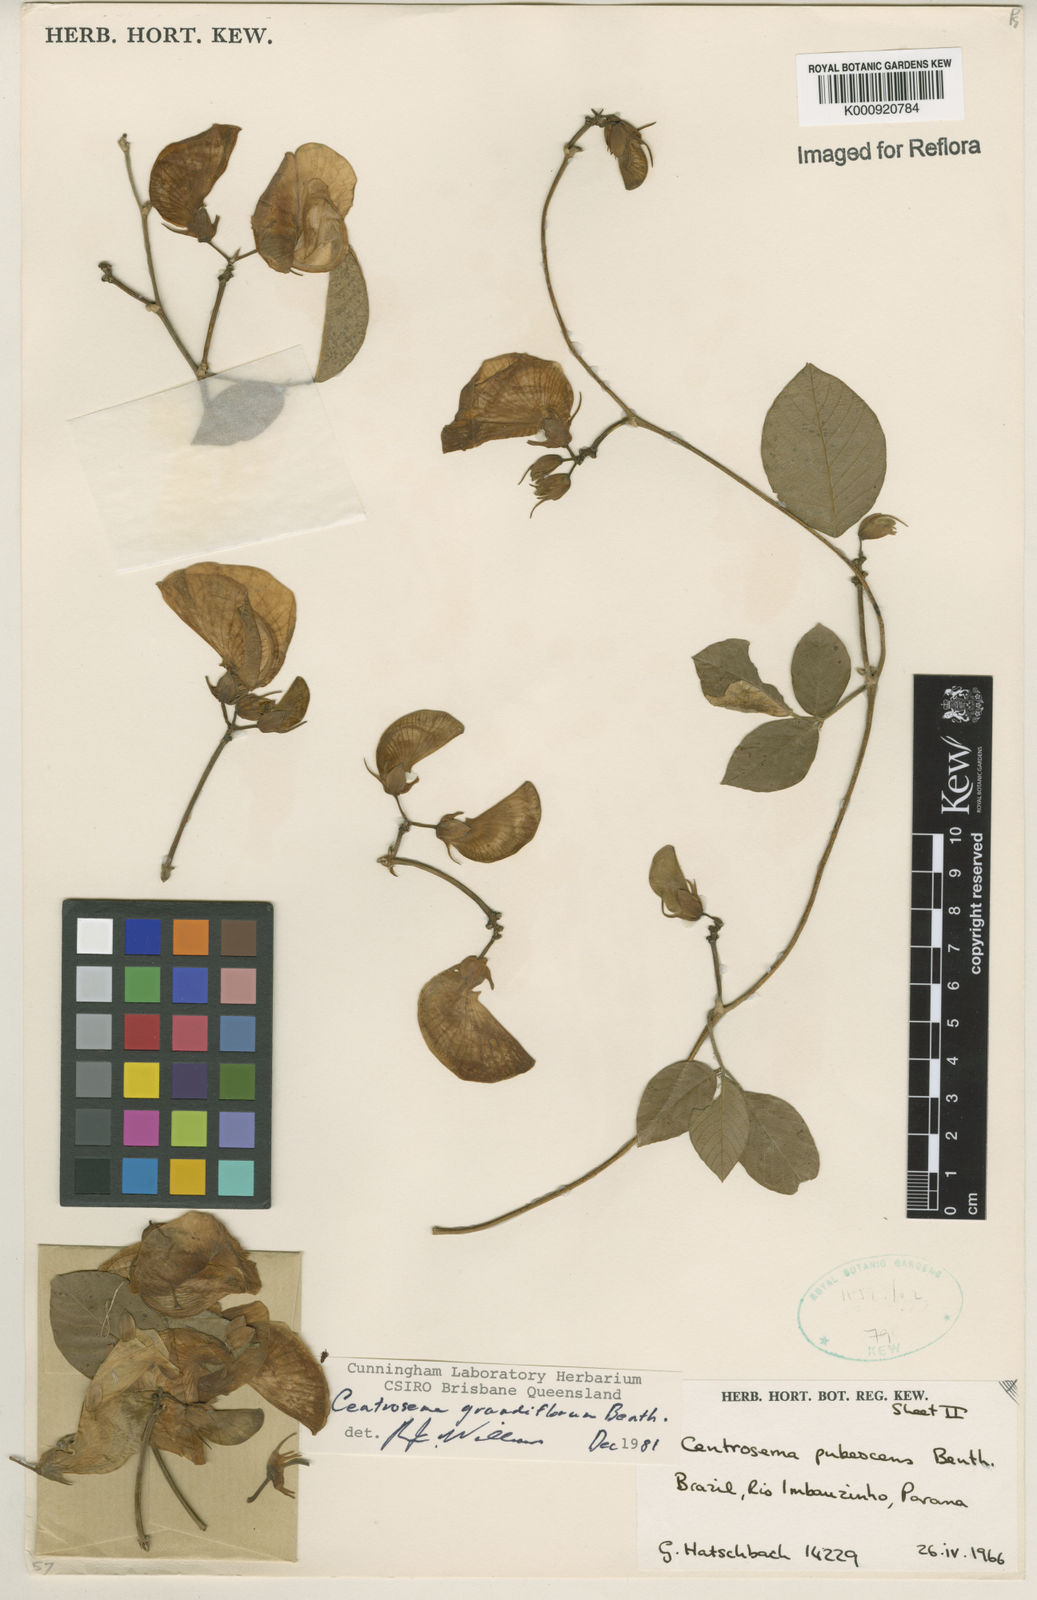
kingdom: Plantae
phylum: Tracheophyta
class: Magnoliopsida
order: Fabales
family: Fabaceae
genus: Centrosema
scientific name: Centrosema grandiflorum
